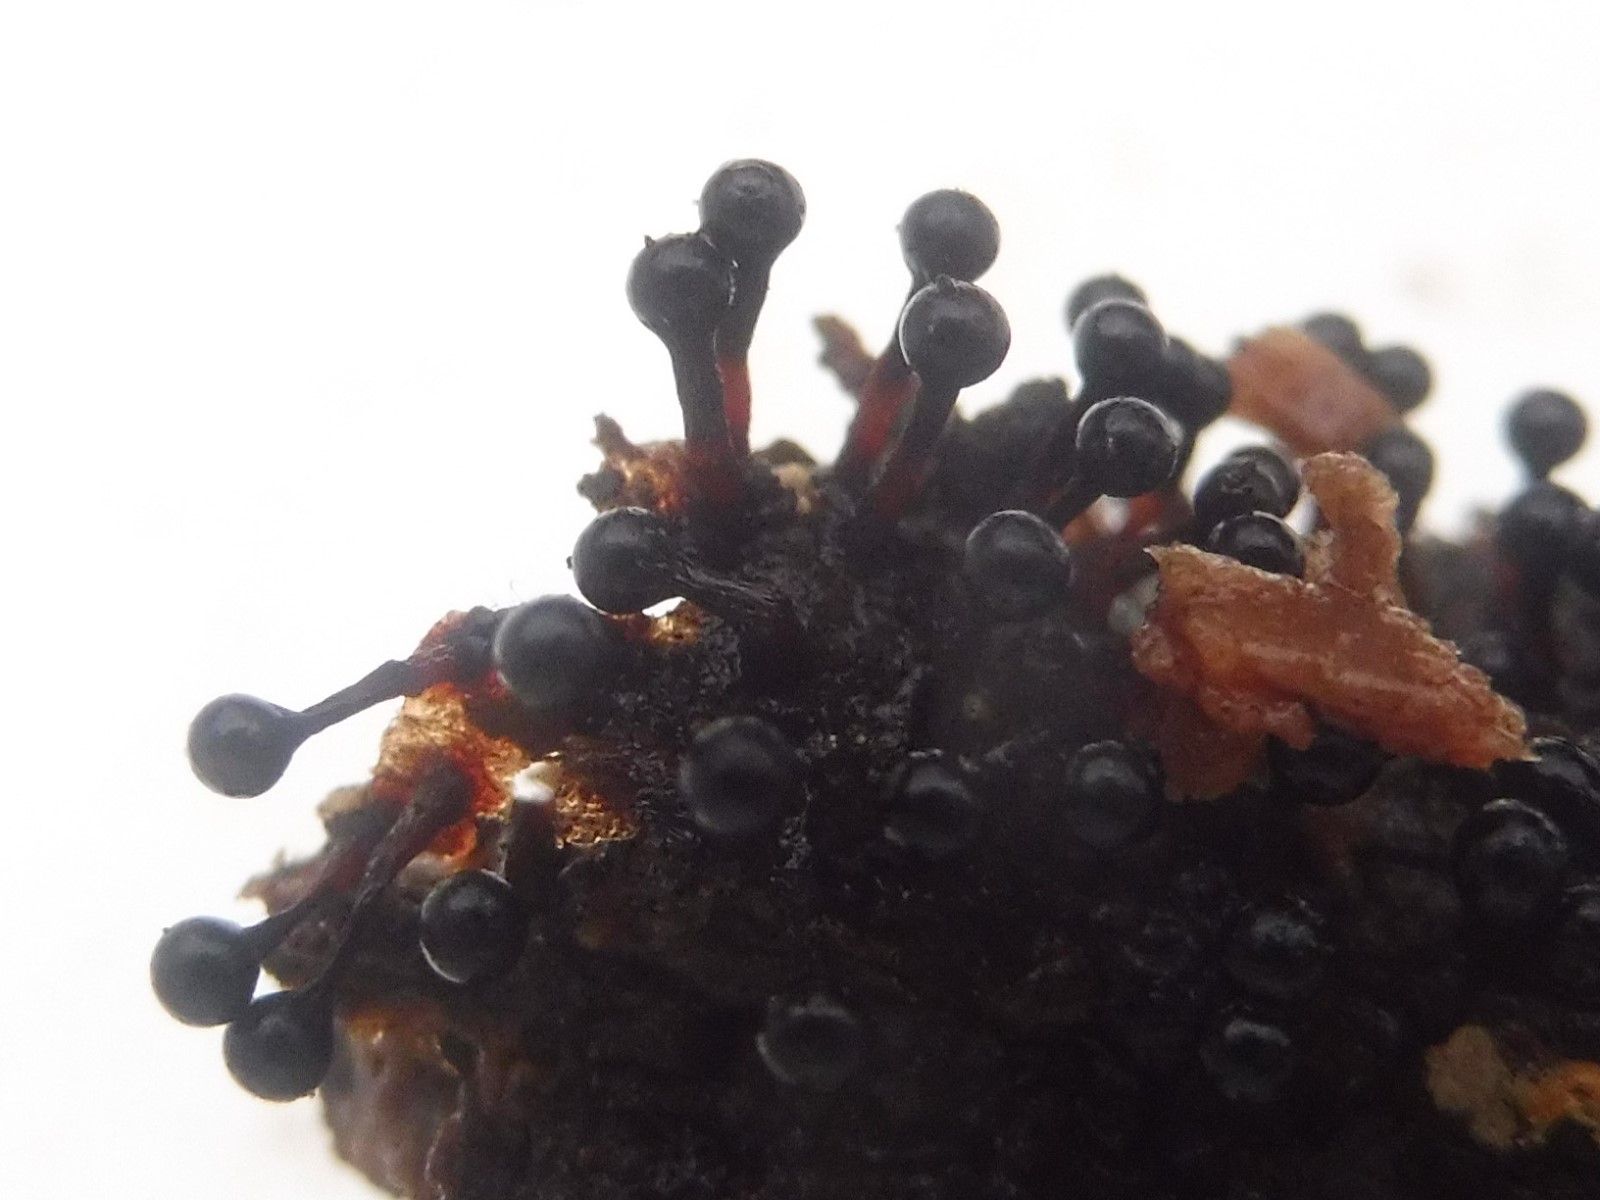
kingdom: Protozoa
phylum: Mycetozoa
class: Myxomycetes
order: Trichiales
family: Trichiaceae
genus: Metatrichia
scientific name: Metatrichia floriformis
